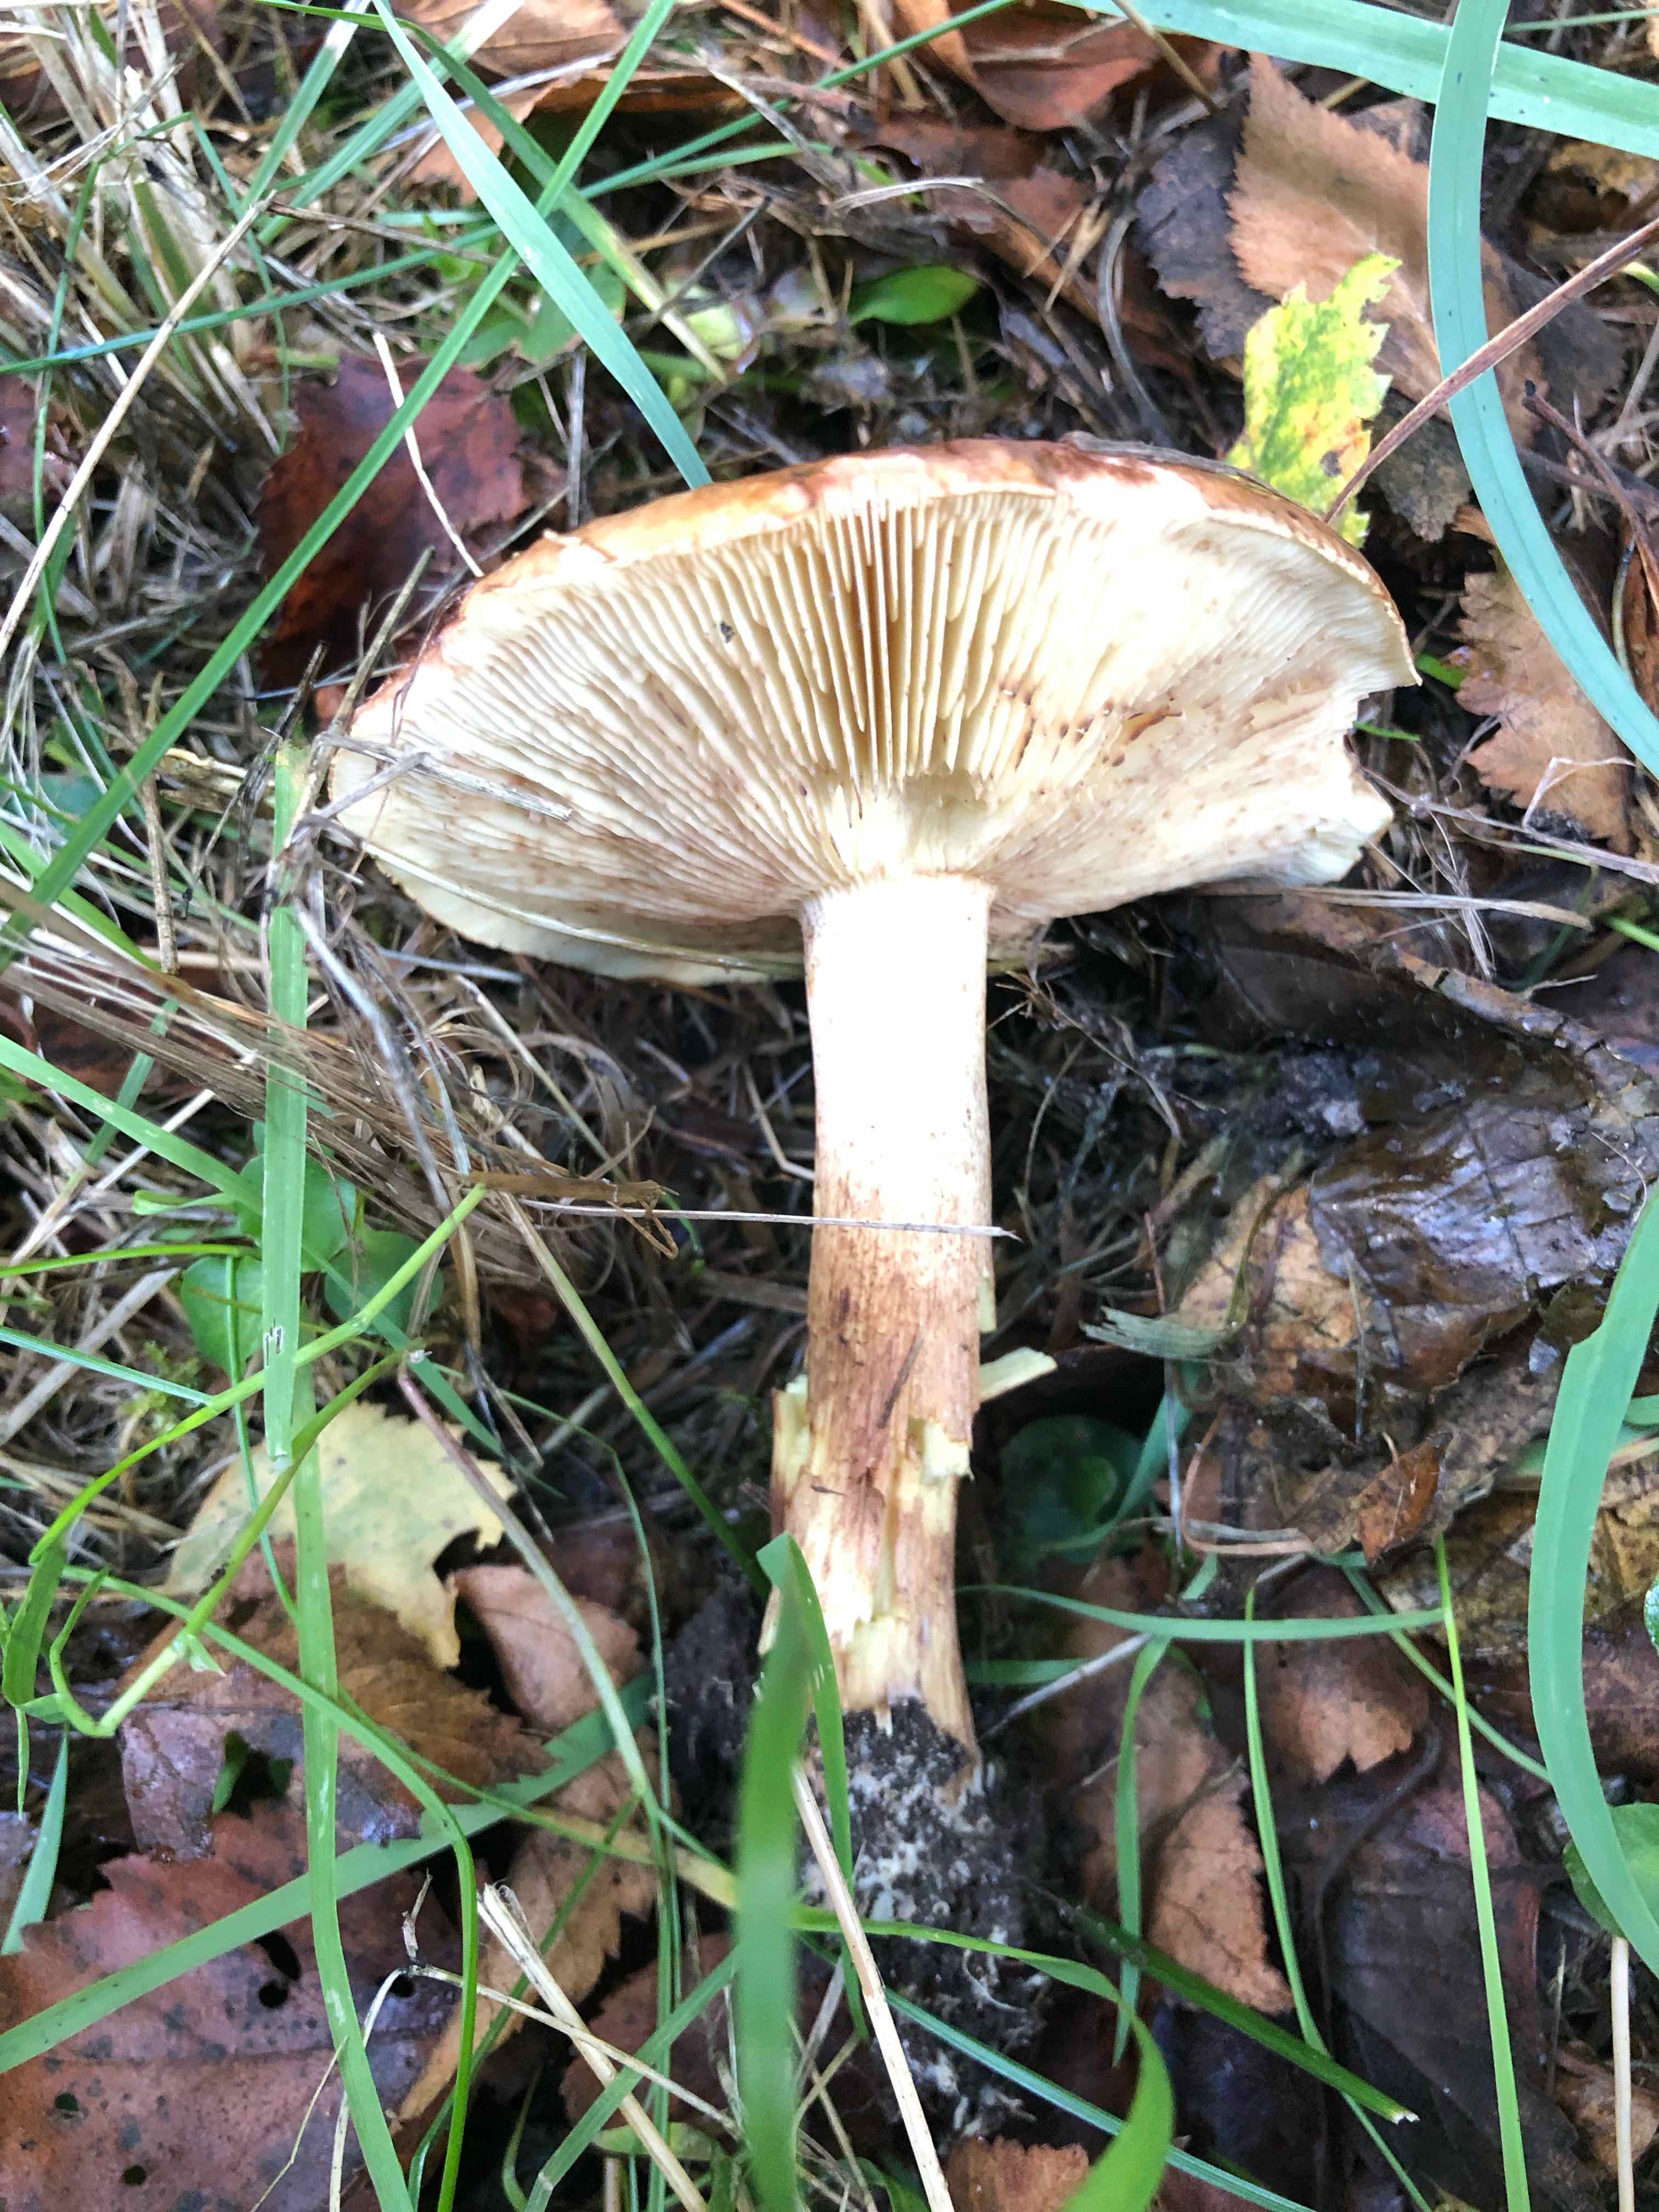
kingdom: Fungi
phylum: Basidiomycota
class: Agaricomycetes
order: Agaricales
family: Tricholomataceae
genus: Tricholoma
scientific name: Tricholoma fulvum
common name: birke-ridderhat
